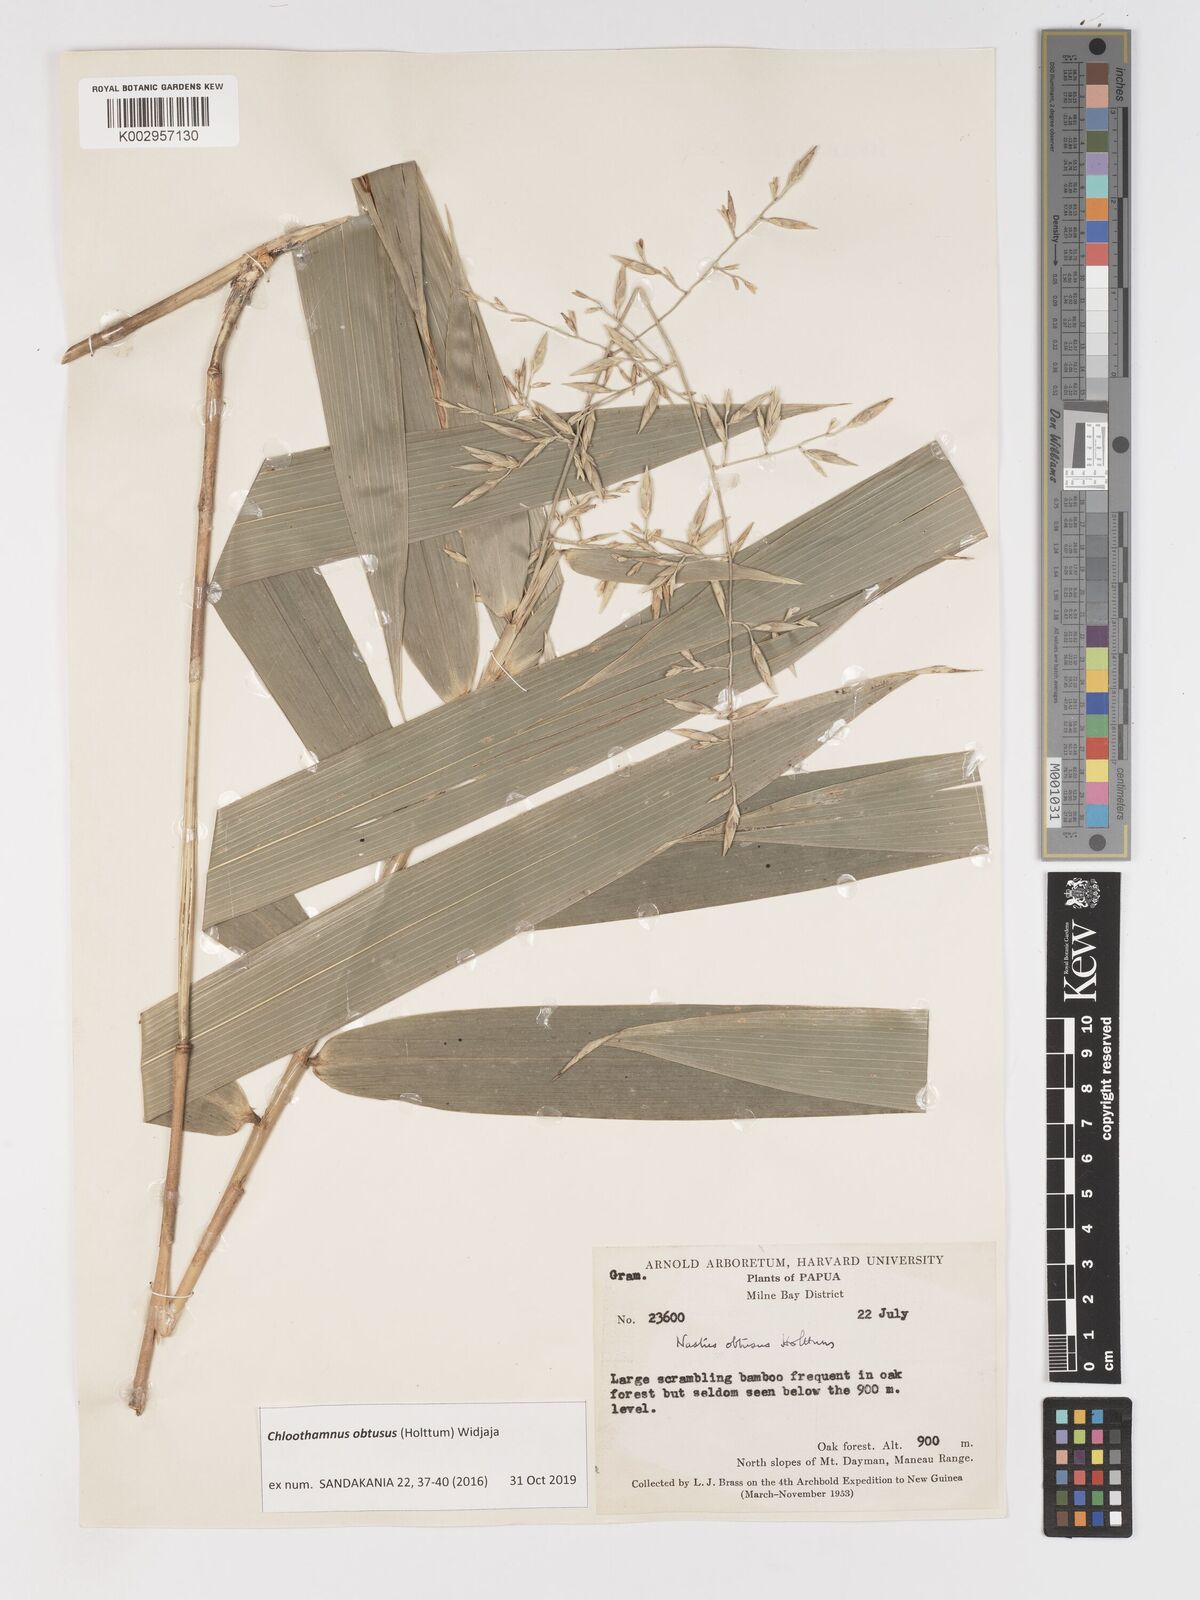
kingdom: Plantae
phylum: Tracheophyta
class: Liliopsida
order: Poales
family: Poaceae
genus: Chloothamnus
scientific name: Chloothamnus obtusus
